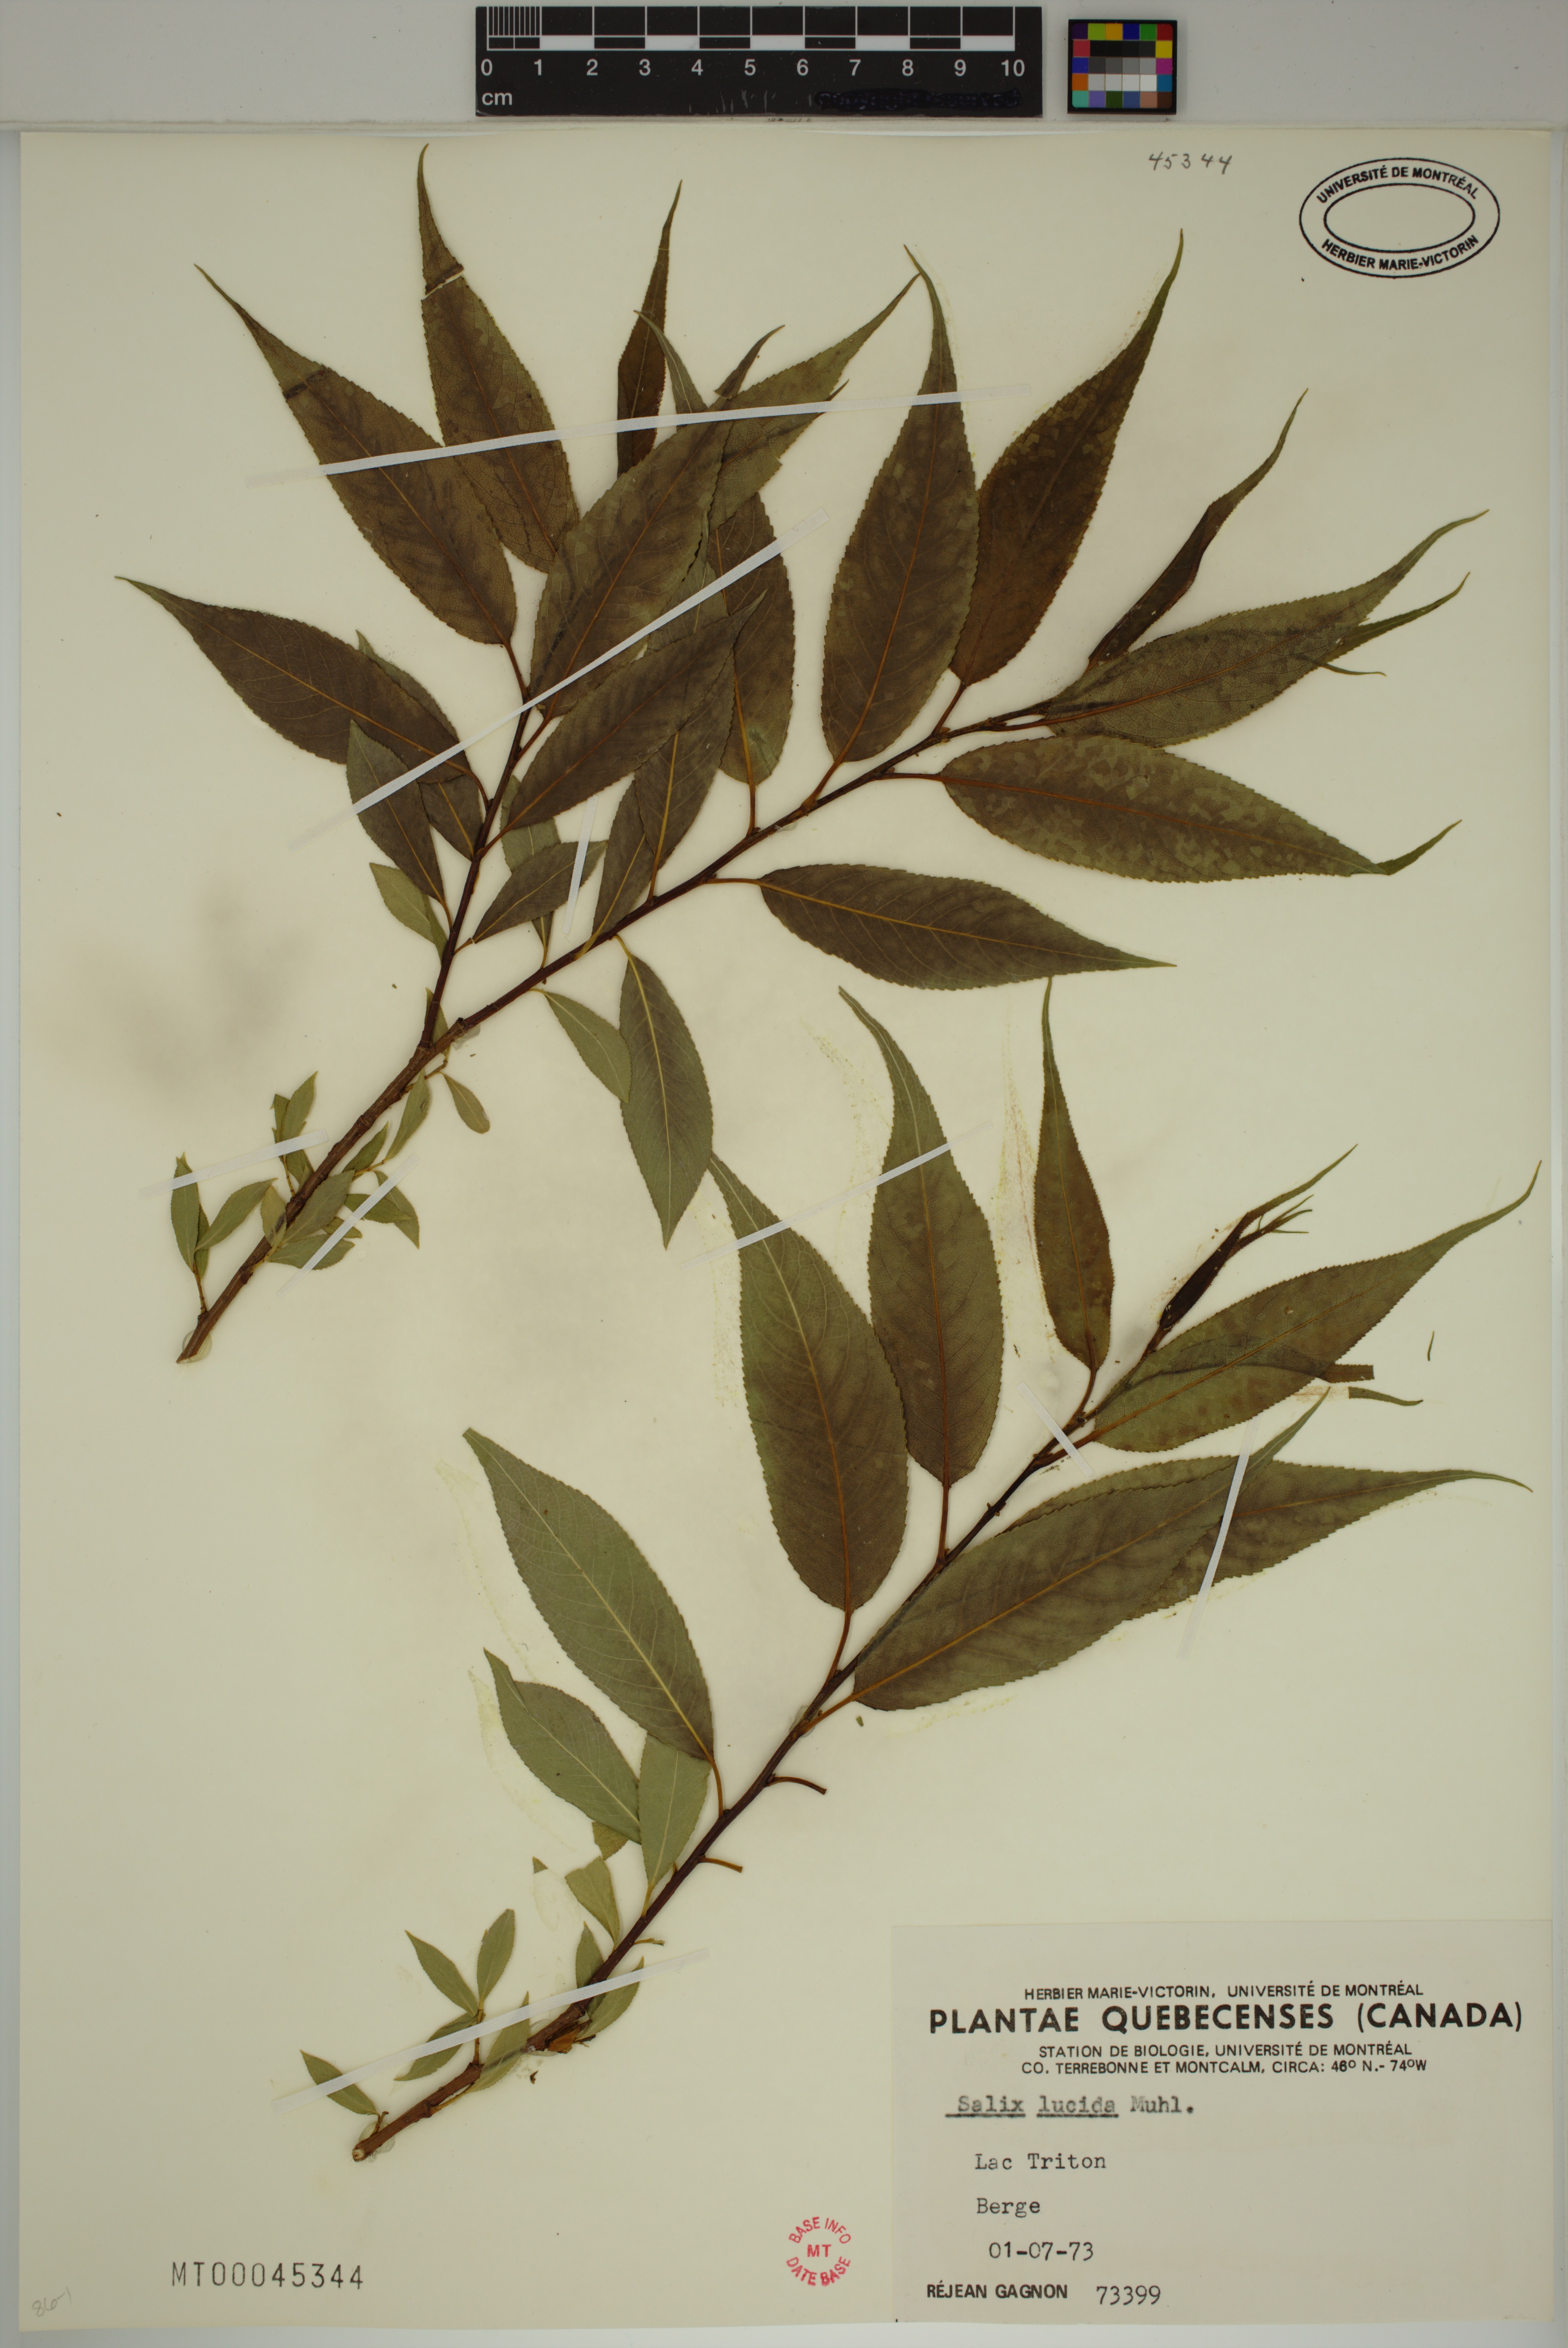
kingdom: Plantae
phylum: Tracheophyta
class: Magnoliopsida
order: Malpighiales
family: Salicaceae
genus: Salix
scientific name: Salix lucida
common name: Shining willow
